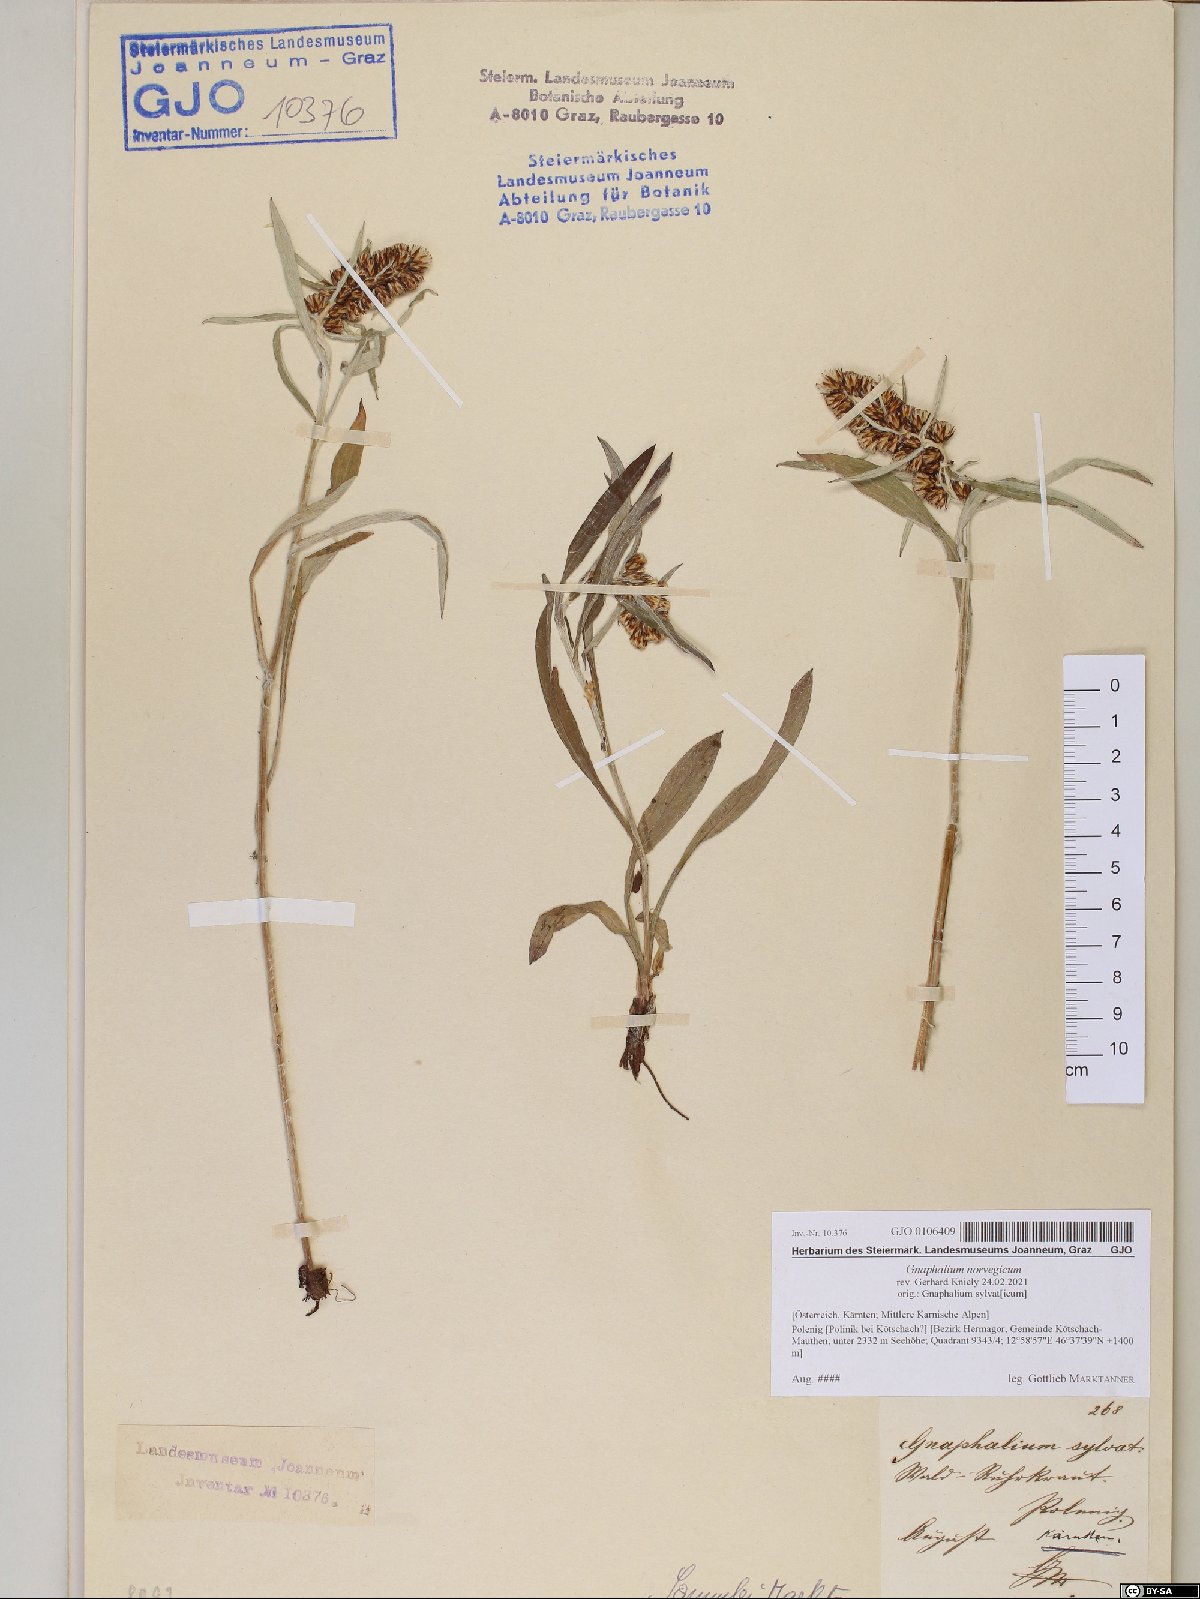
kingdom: Plantae
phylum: Tracheophyta
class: Magnoliopsida
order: Asterales
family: Asteraceae
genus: Omalotheca
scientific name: Omalotheca norvegica
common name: Norwegian arctic-cudweed
